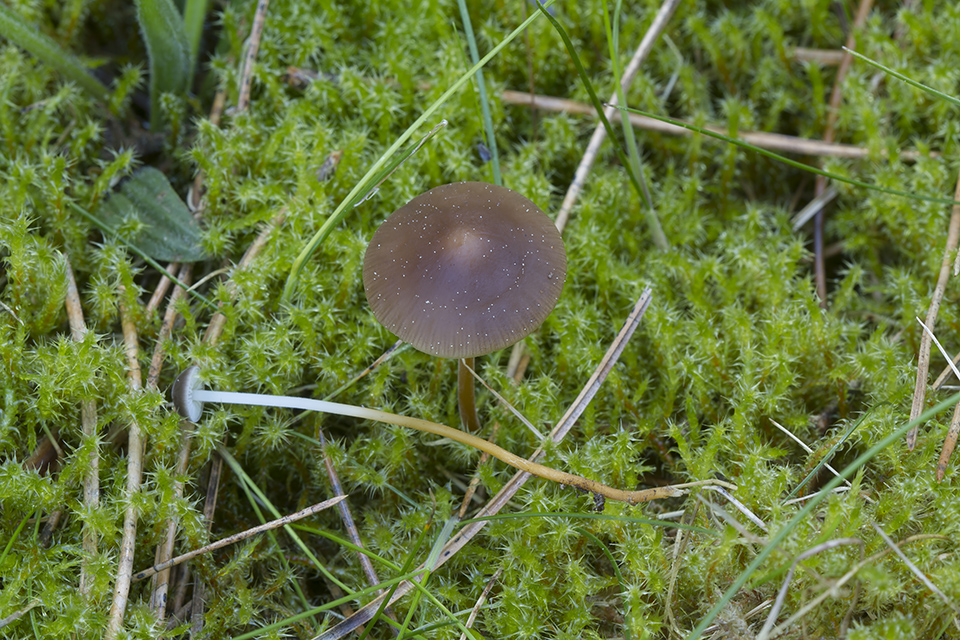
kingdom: Fungi
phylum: Basidiomycota
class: Agaricomycetes
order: Agaricales
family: Physalacriaceae
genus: Strobilurus
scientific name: Strobilurus stephanocystis
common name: fyrre-koglehat
